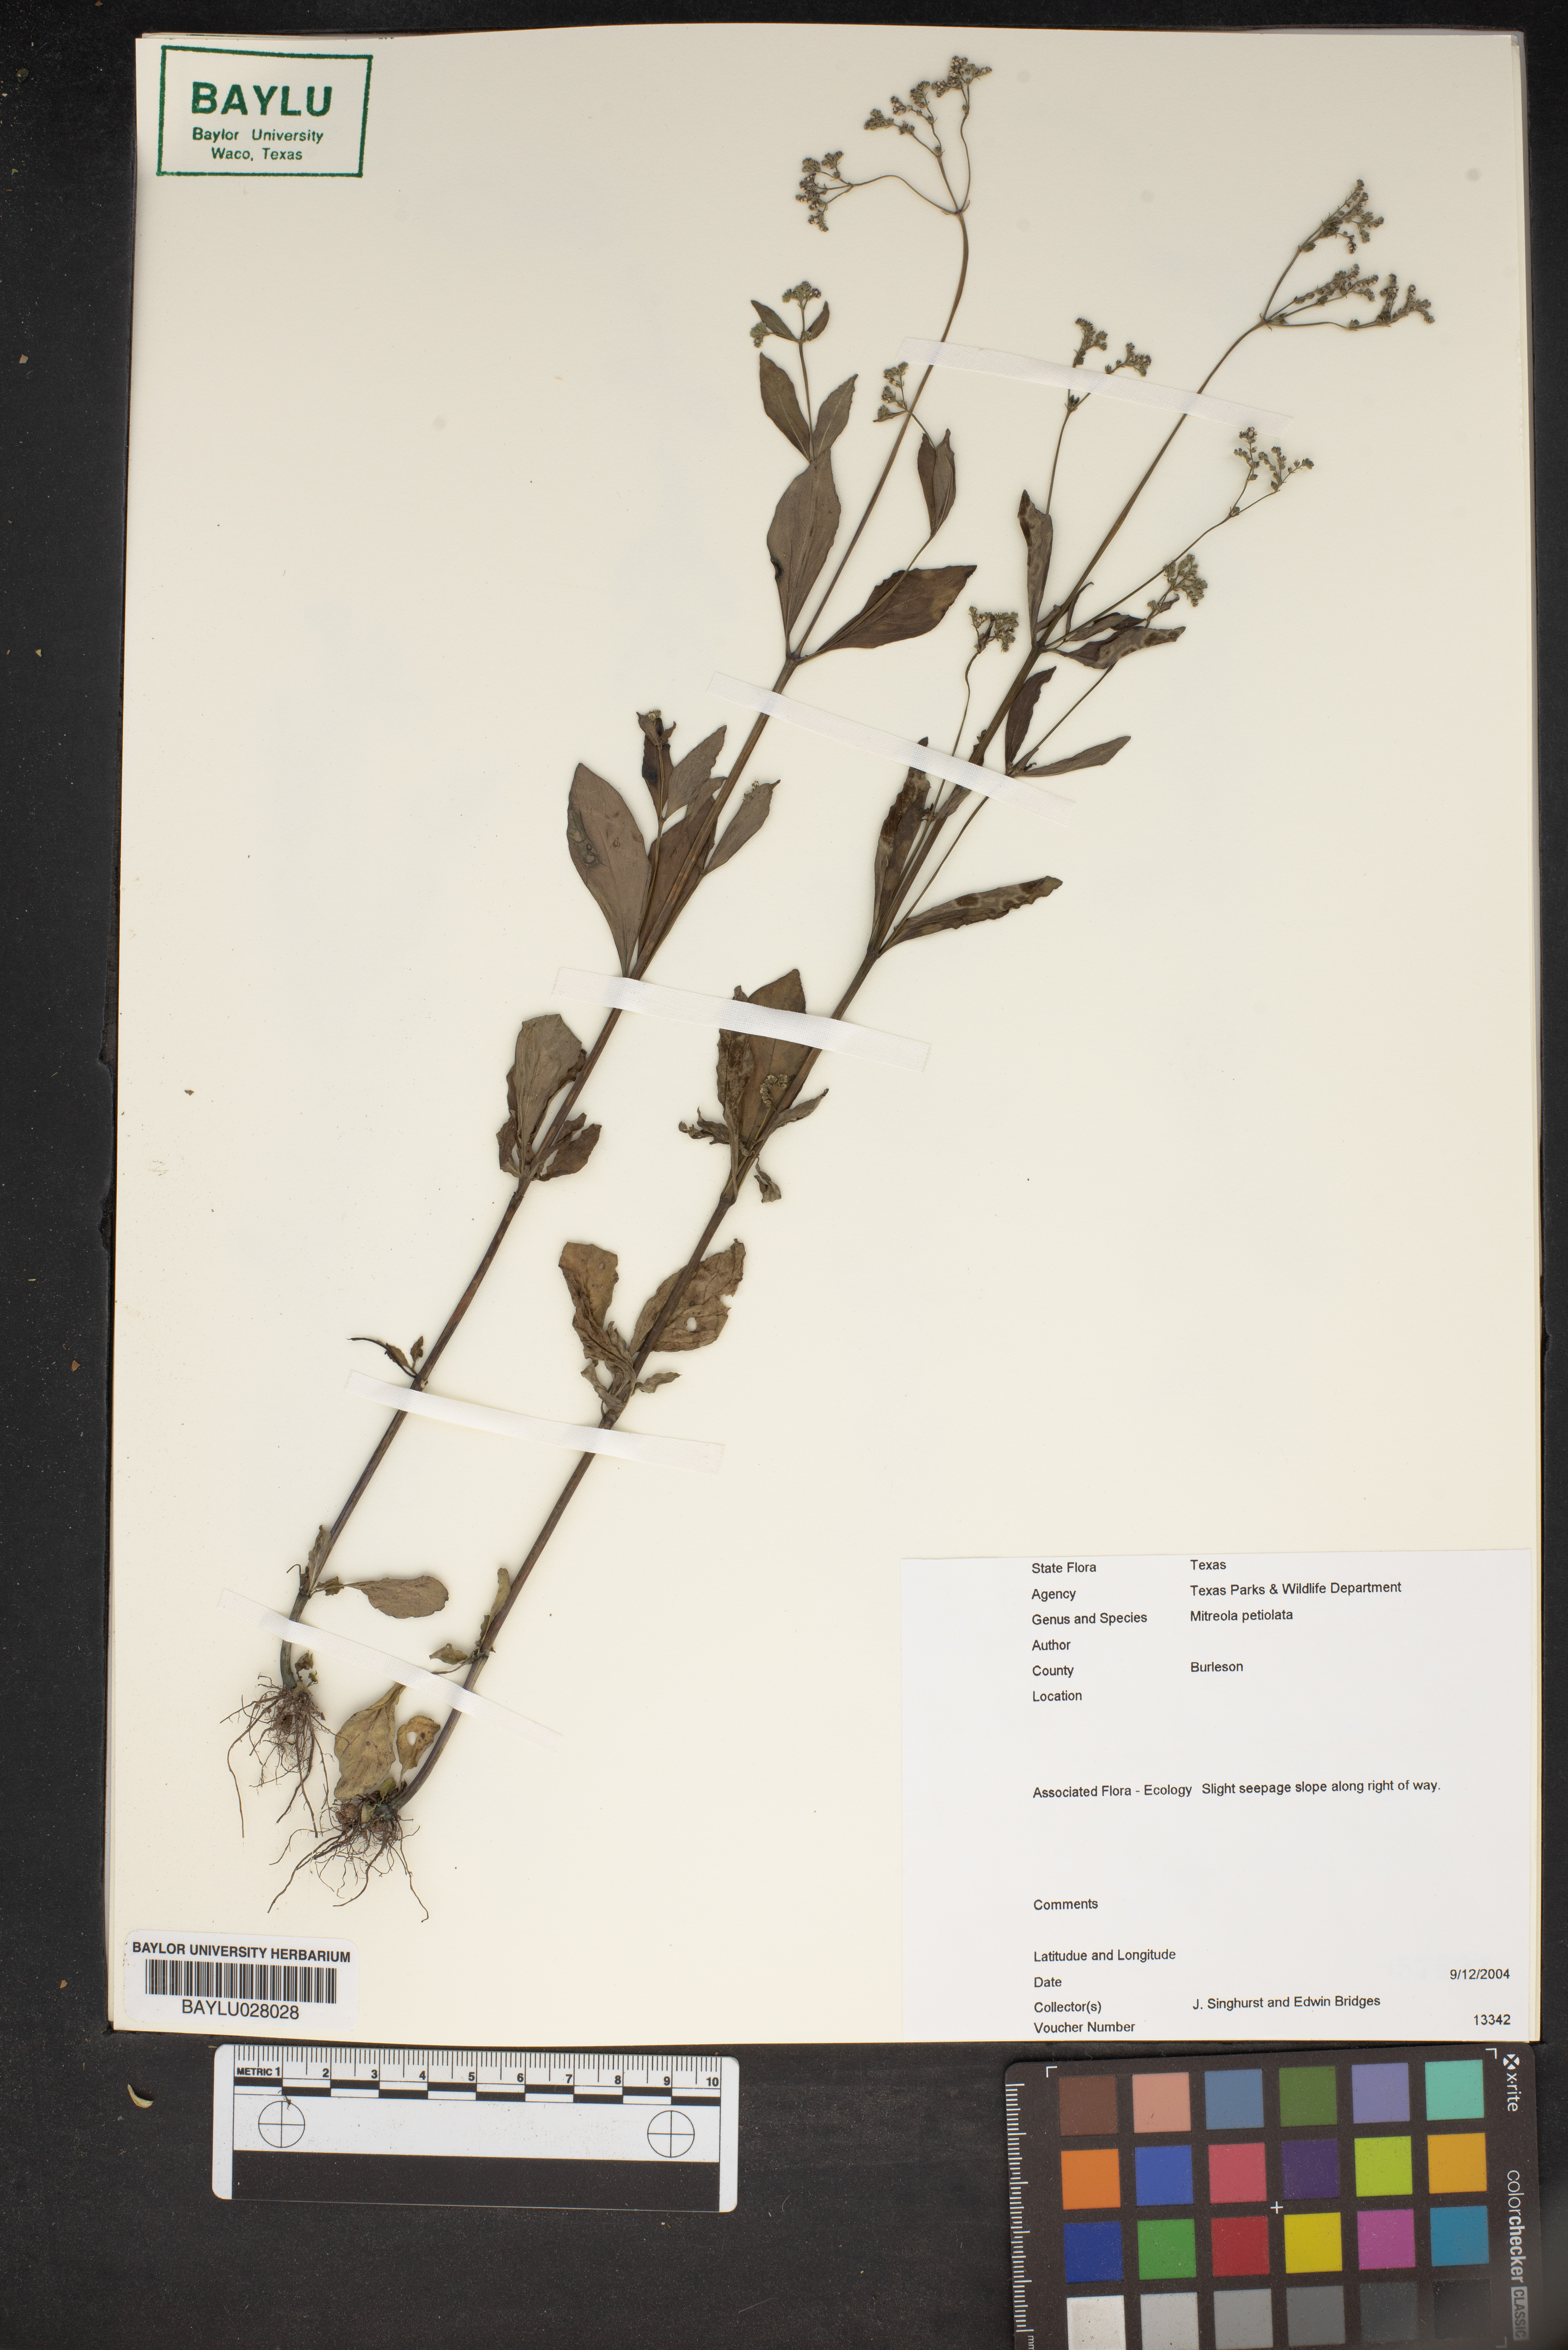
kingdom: Plantae
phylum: Tracheophyta
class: Magnoliopsida
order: Gentianales
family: Loganiaceae
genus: Mitreola
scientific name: Mitreola petiolata
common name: Lax hornpod
